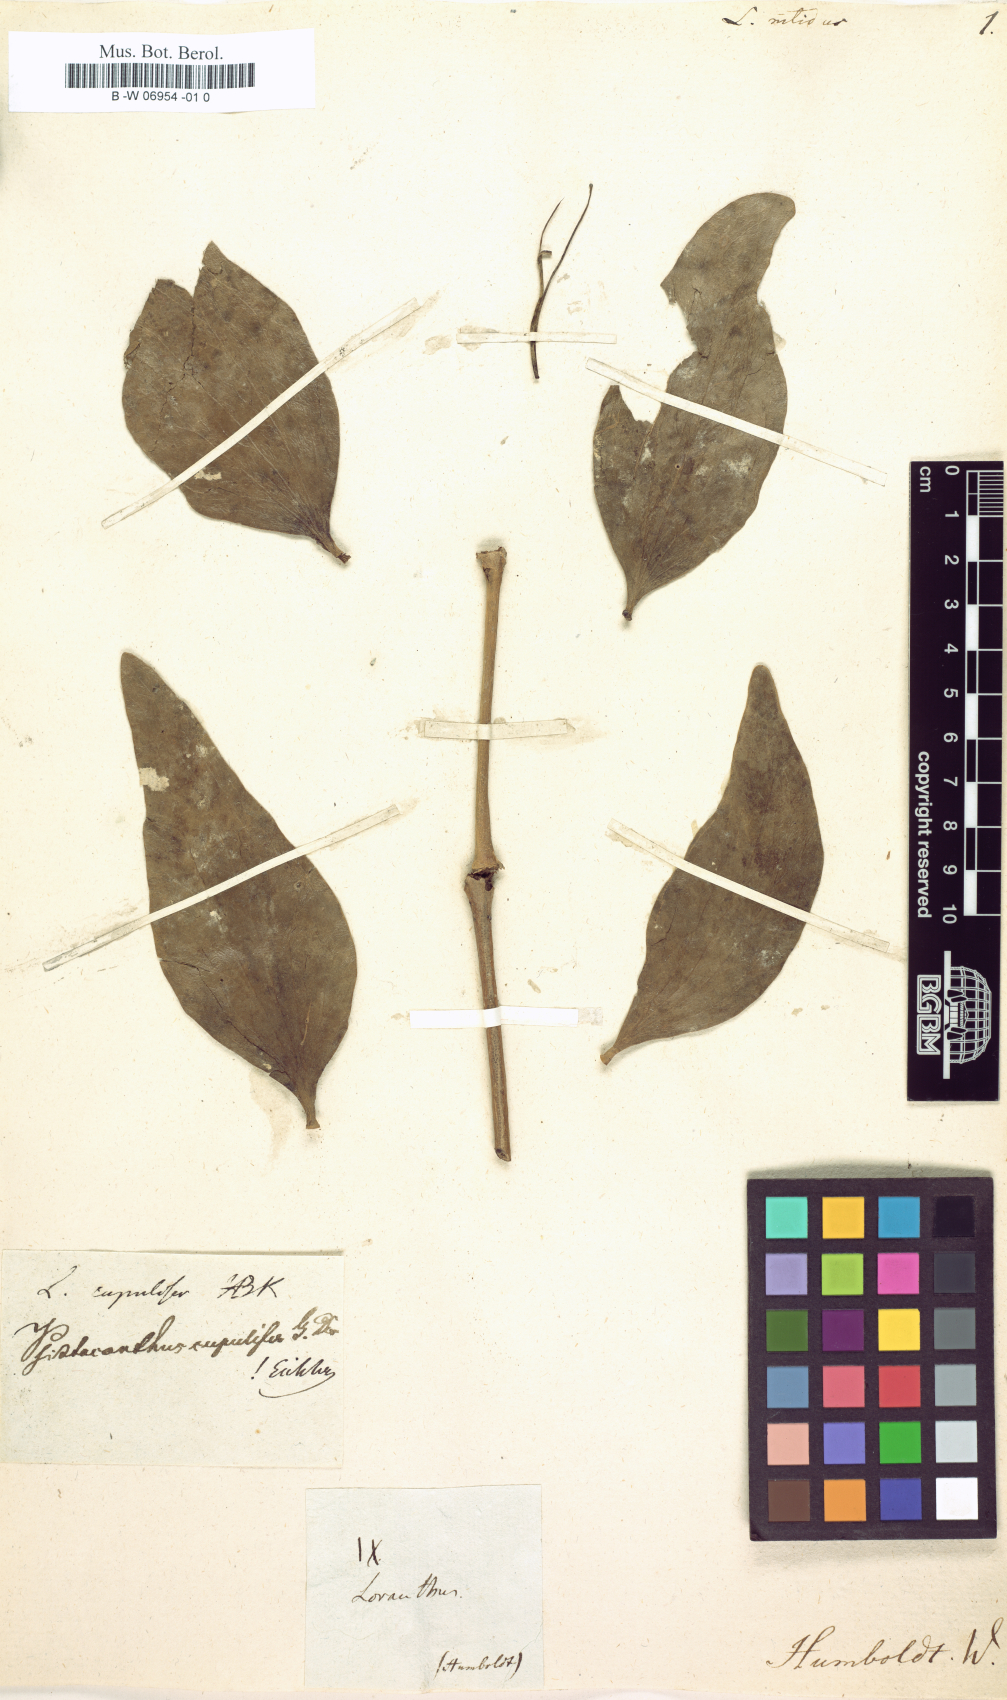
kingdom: Plantae
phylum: Tracheophyta
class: Magnoliopsida
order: Santalales
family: Loranthaceae
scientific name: Loranthaceae
